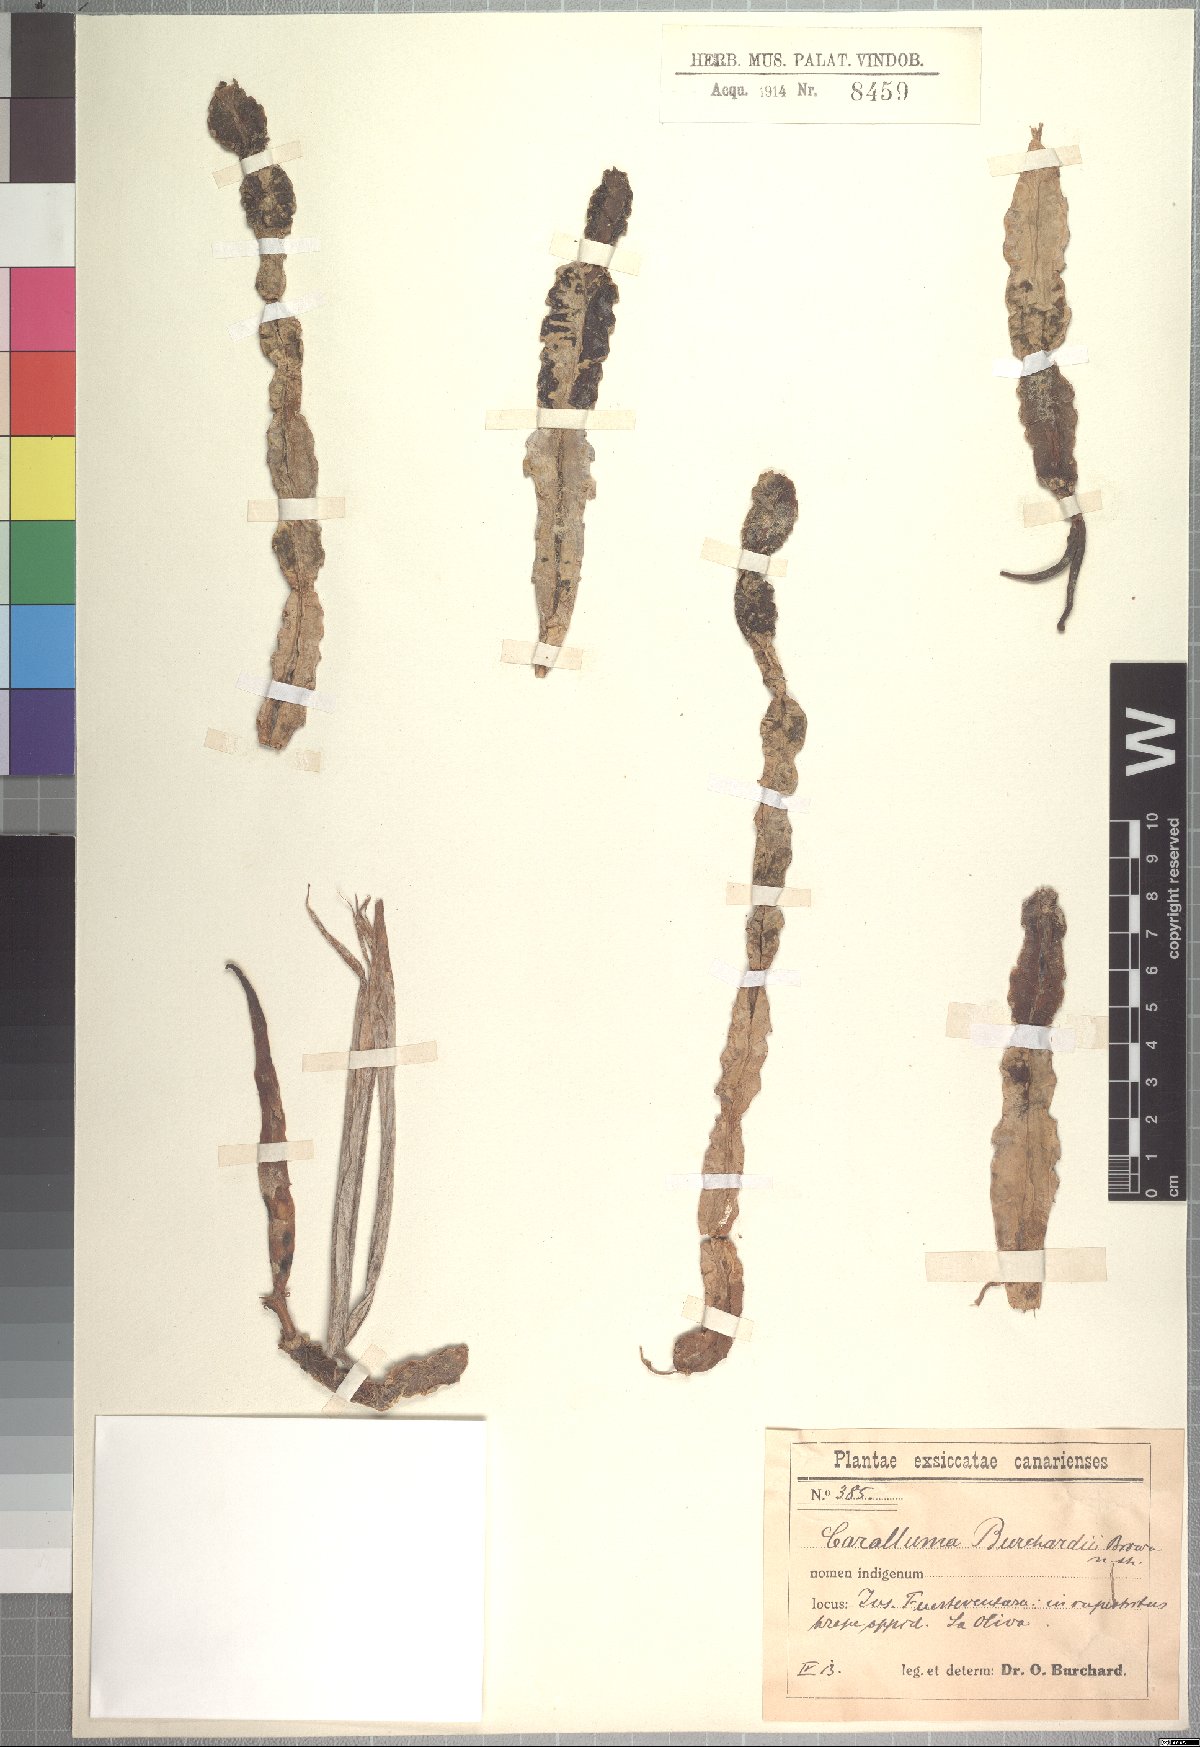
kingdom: Plantae
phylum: Tracheophyta
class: Magnoliopsida
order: Gentianales
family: Apocynaceae
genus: Ceropegia
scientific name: Ceropegia burchardii
